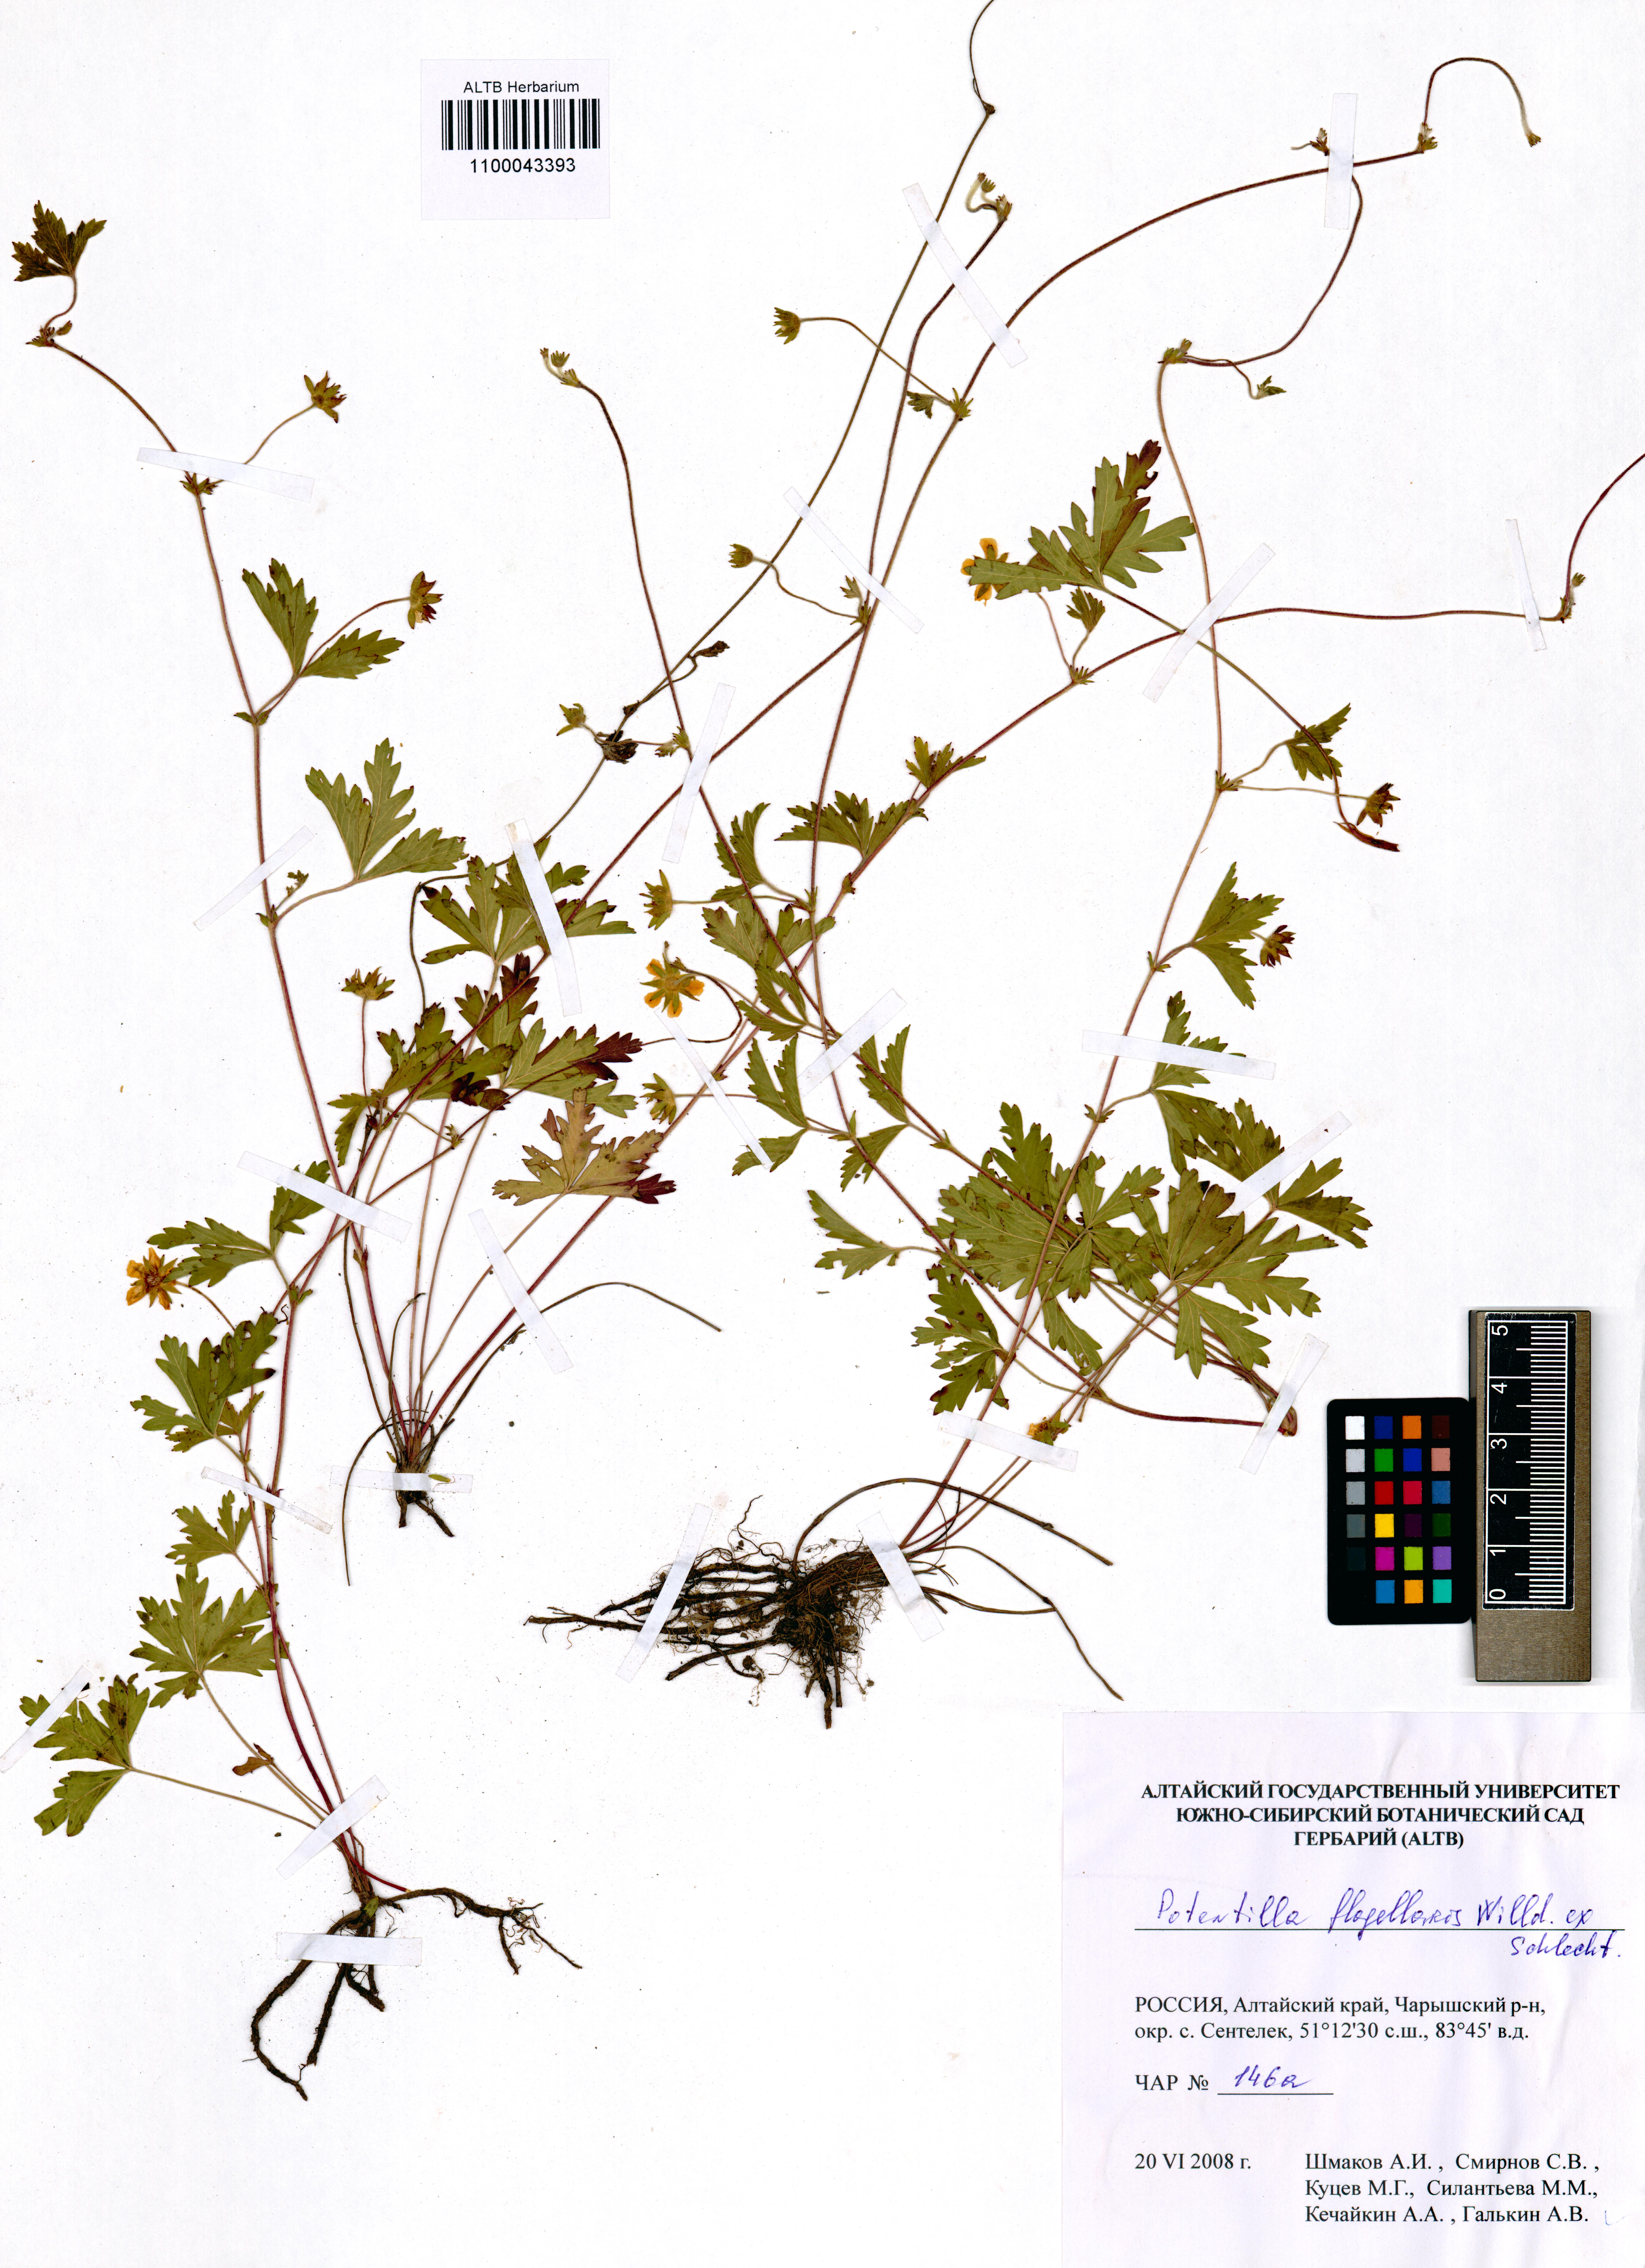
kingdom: Plantae
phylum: Tracheophyta
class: Magnoliopsida
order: Rosales
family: Rosaceae
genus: Potentilla
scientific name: Potentilla flagellaris
